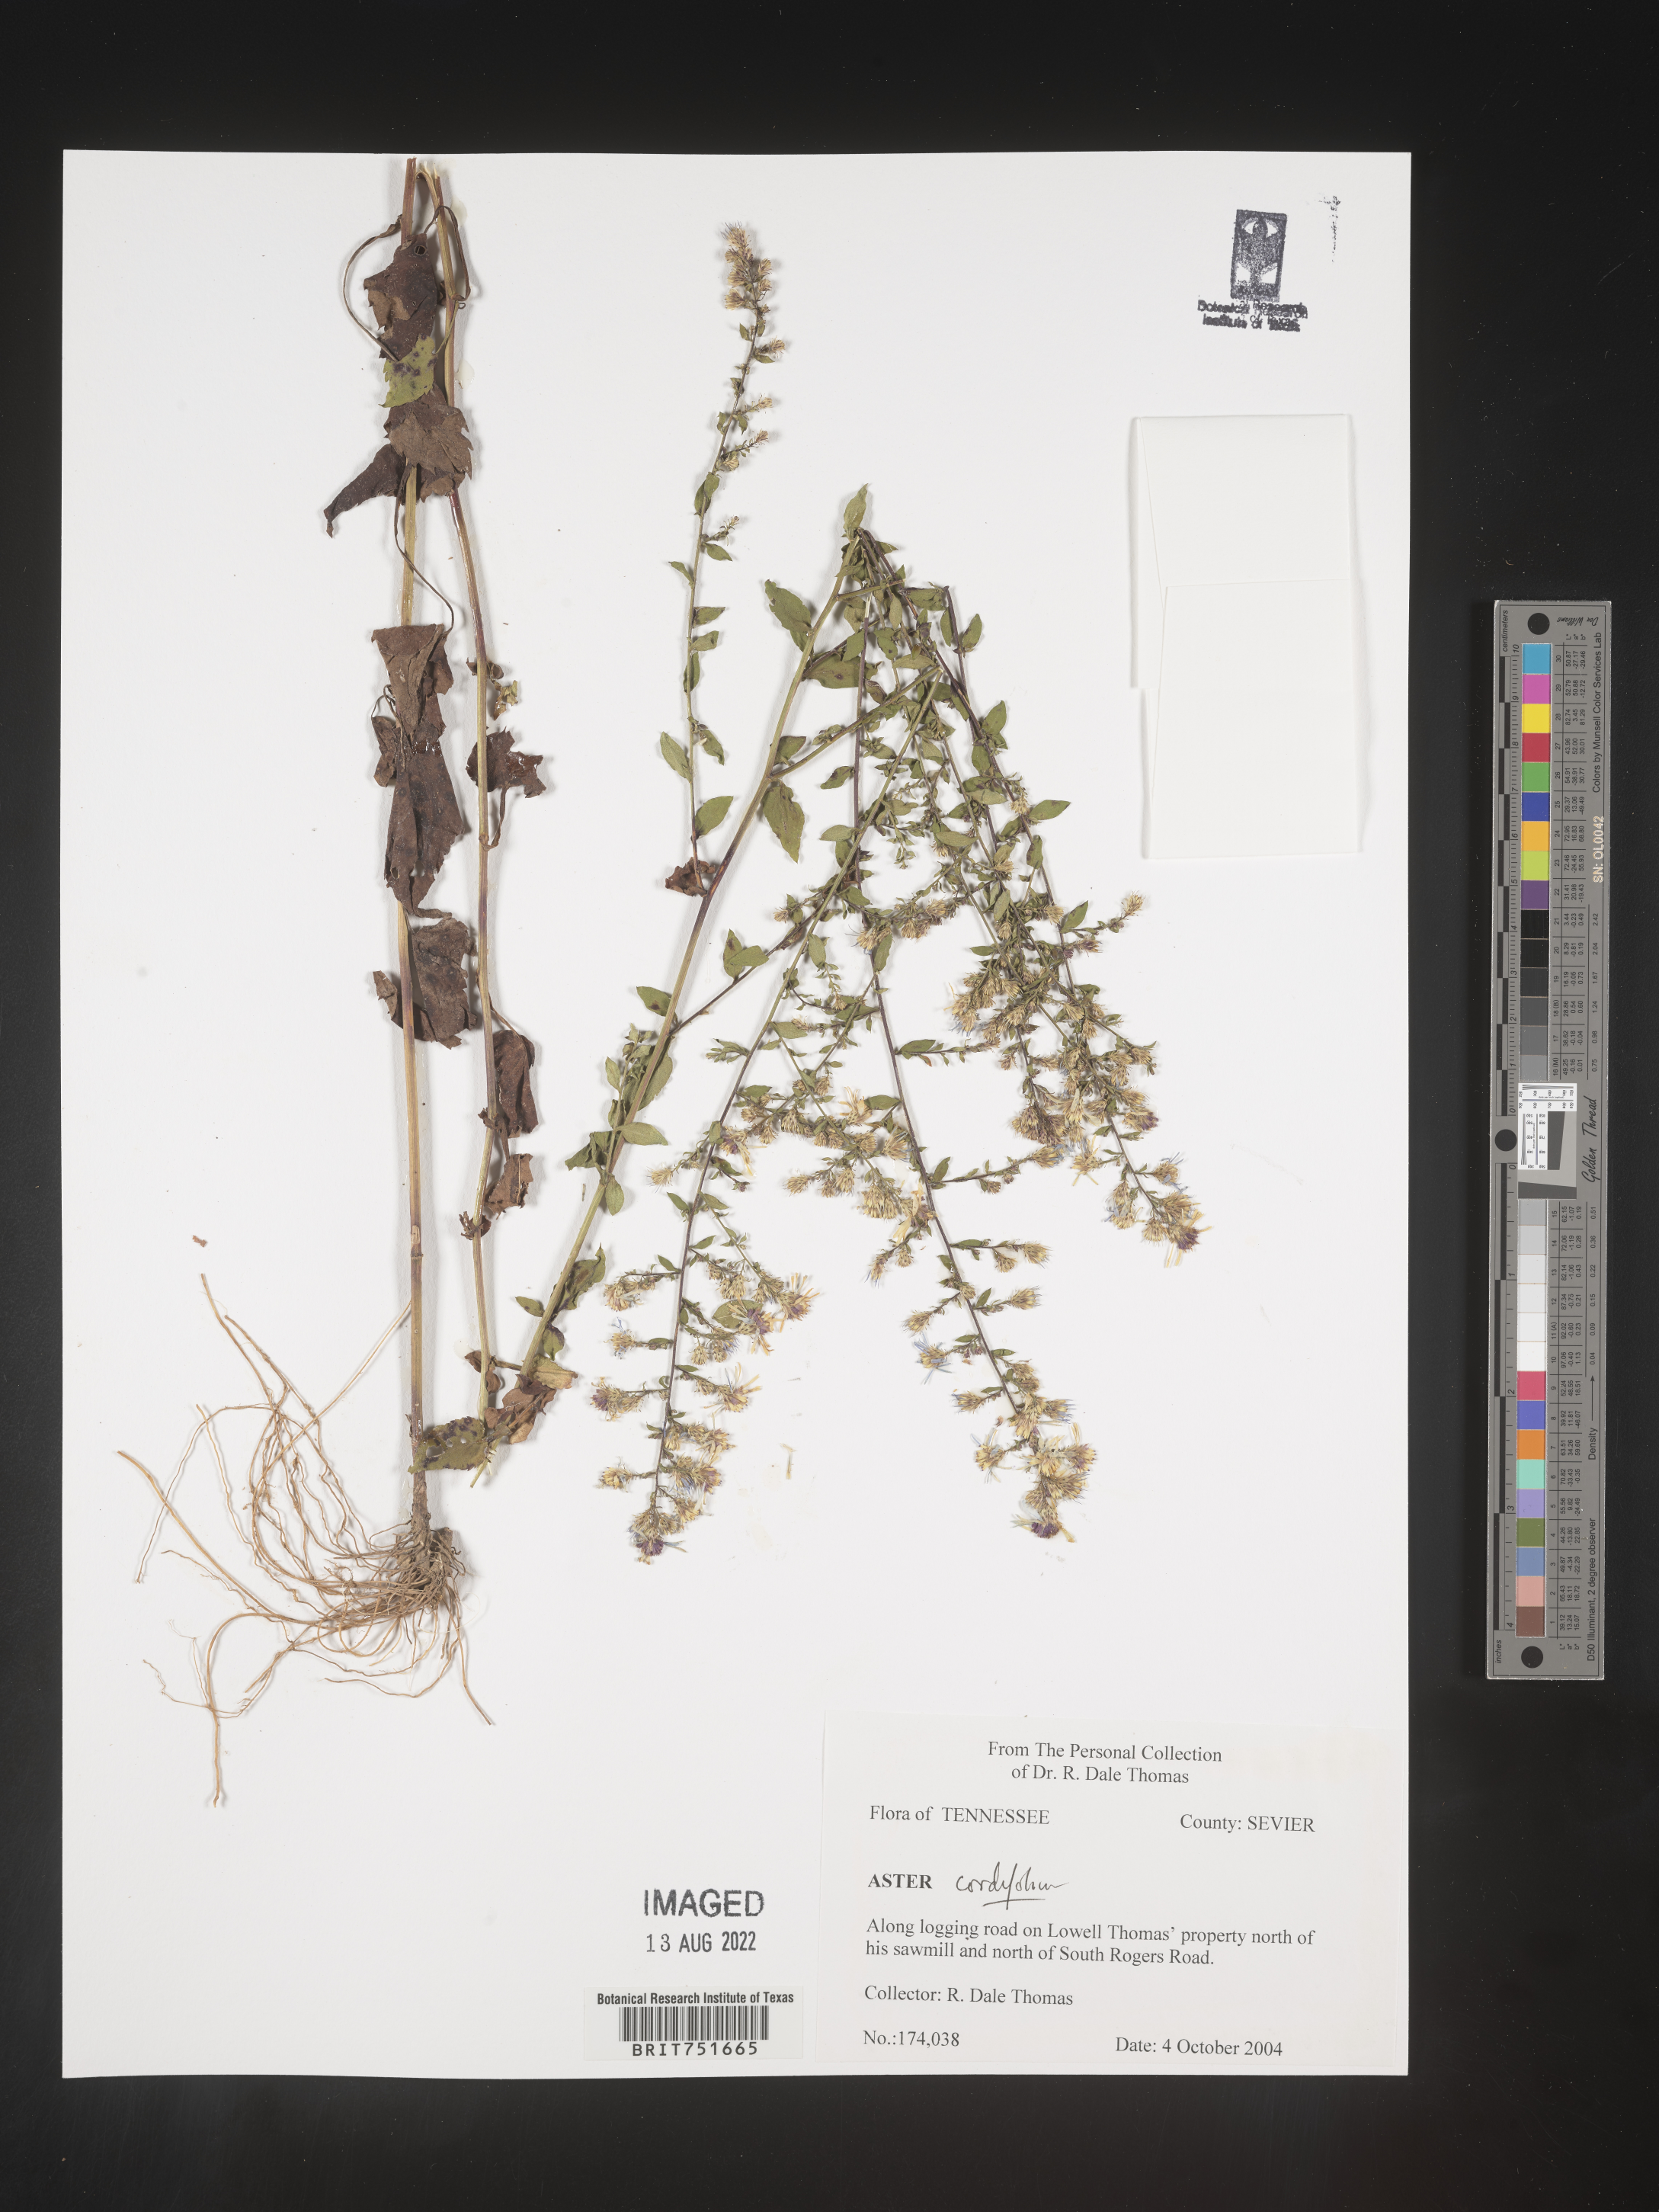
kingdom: Plantae
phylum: Tracheophyta
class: Magnoliopsida
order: Asterales
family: Asteraceae
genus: Symphyotrichum
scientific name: Symphyotrichum cordifolium
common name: Beeweed
